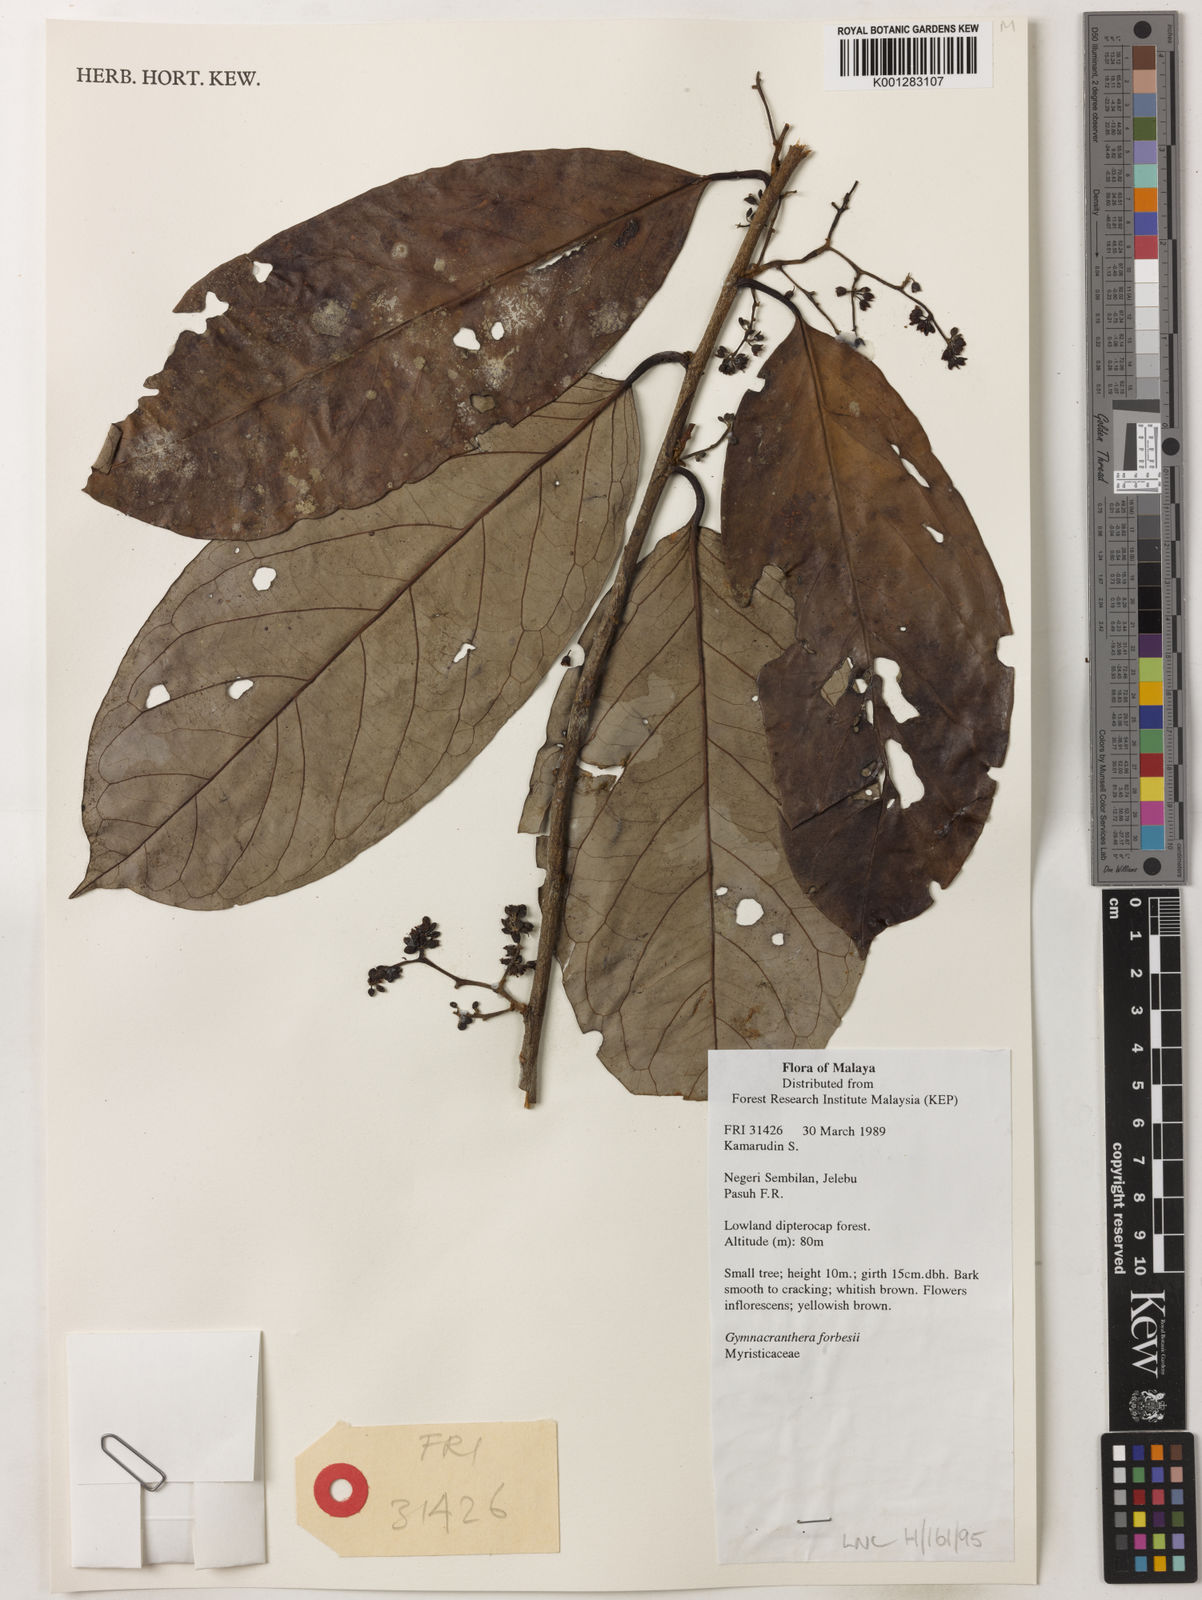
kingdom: Plantae
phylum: Tracheophyta
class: Magnoliopsida
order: Magnoliales
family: Myristicaceae
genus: Gymnacranthera
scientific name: Gymnacranthera forbesii
